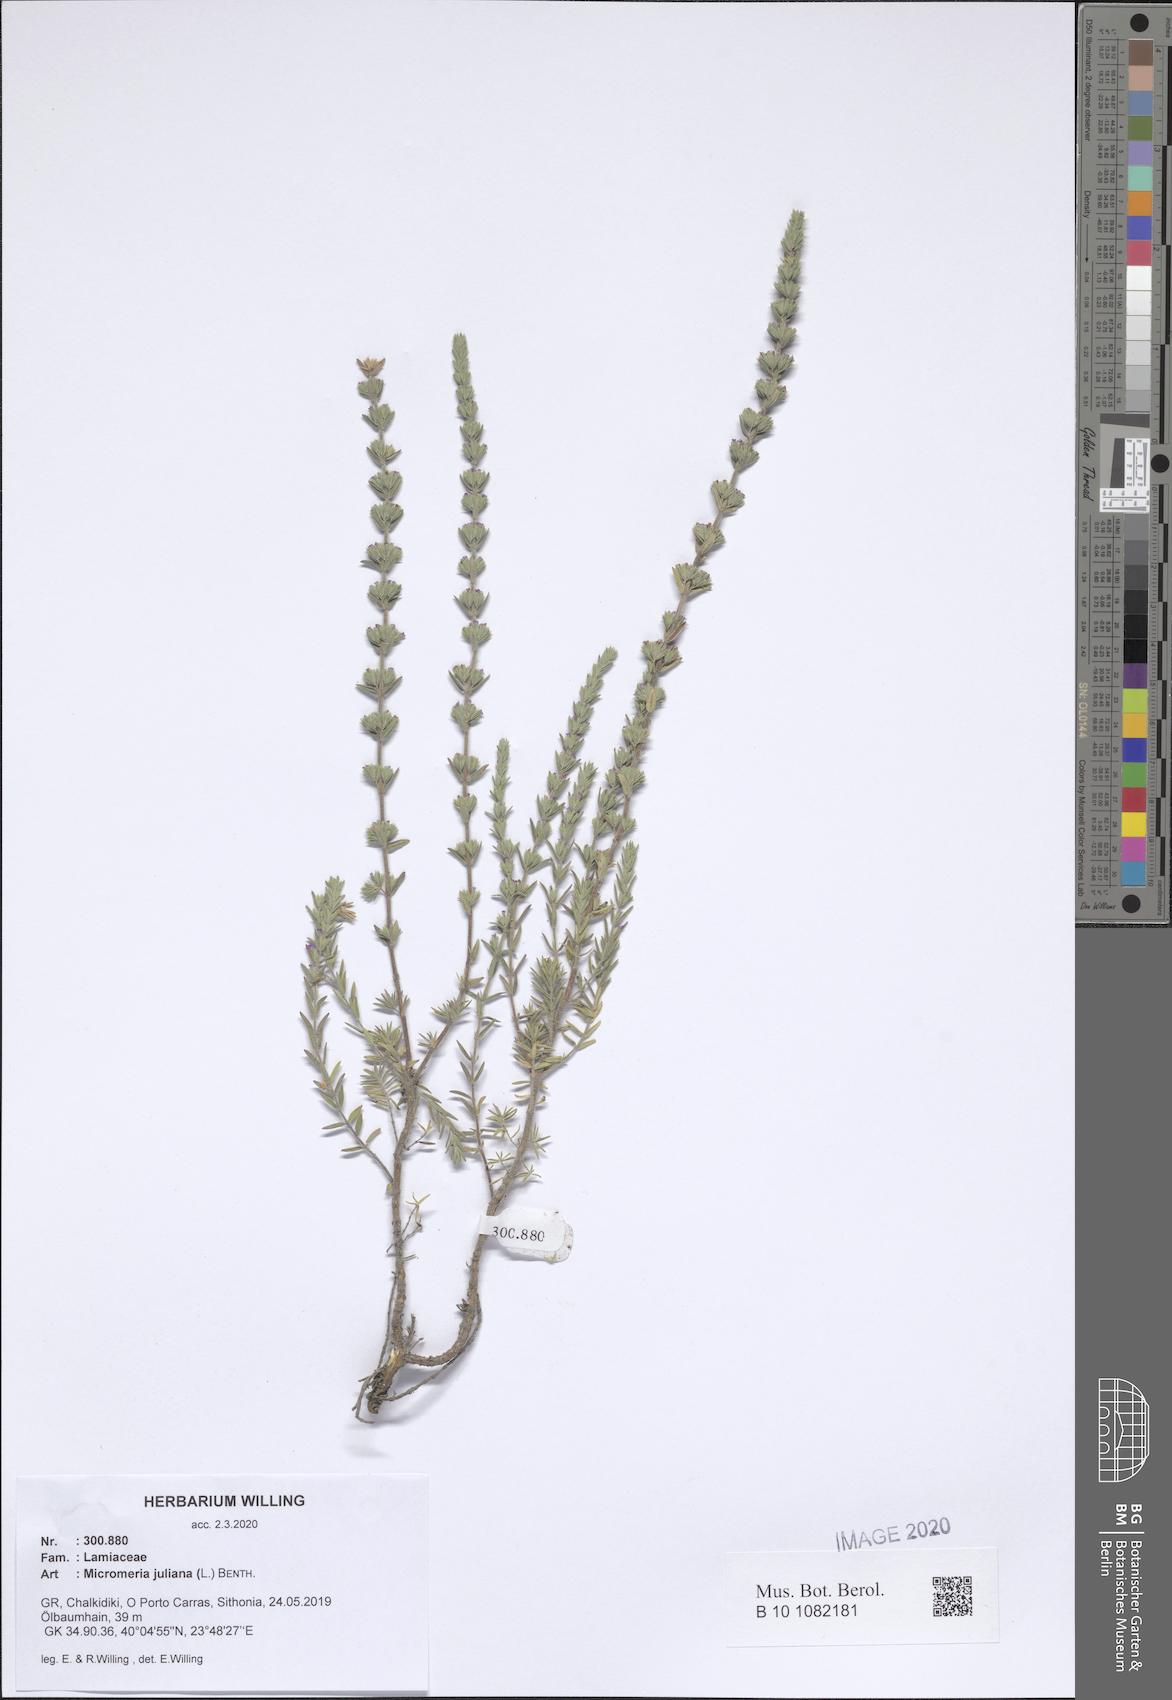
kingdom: Plantae
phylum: Tracheophyta
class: Magnoliopsida
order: Lamiales
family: Lamiaceae
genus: Micromeria
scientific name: Micromeria juliana
